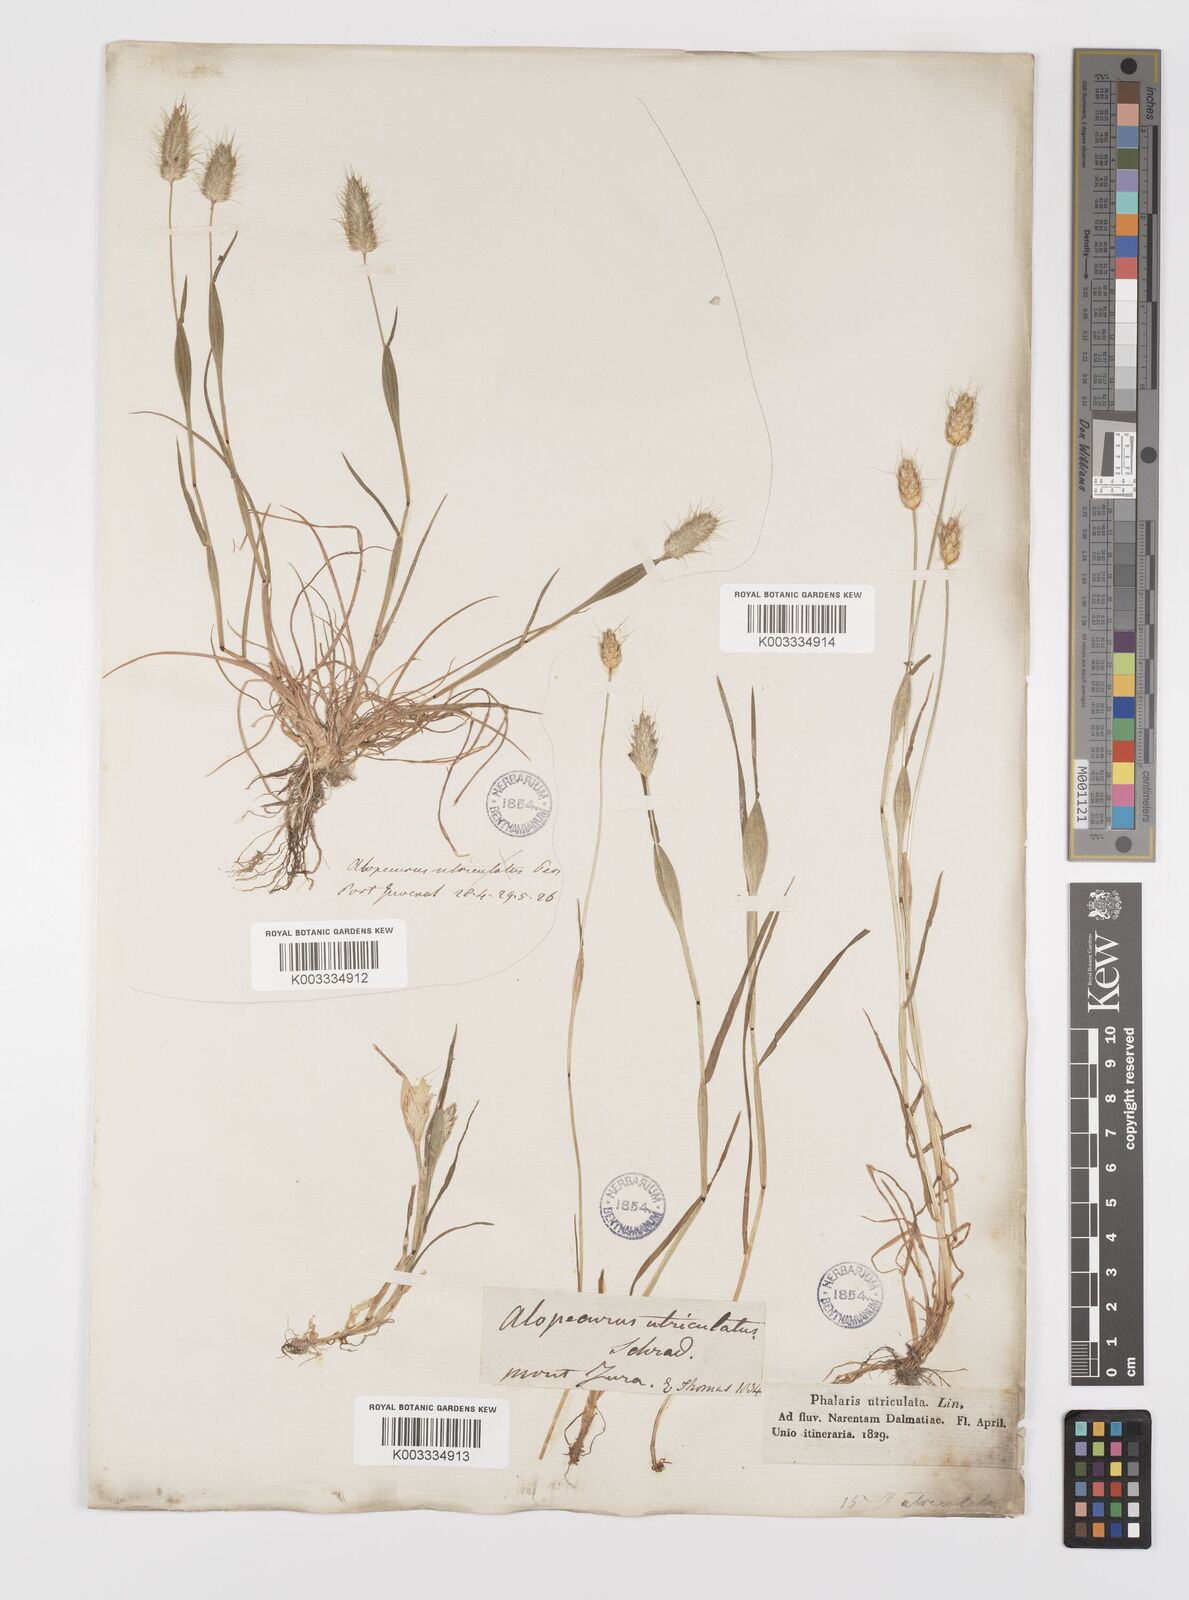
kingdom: Plantae
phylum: Tracheophyta
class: Liliopsida
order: Poales
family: Poaceae
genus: Alopecurus
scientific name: Alopecurus rendlei
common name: Rendle's meadow foxtail
